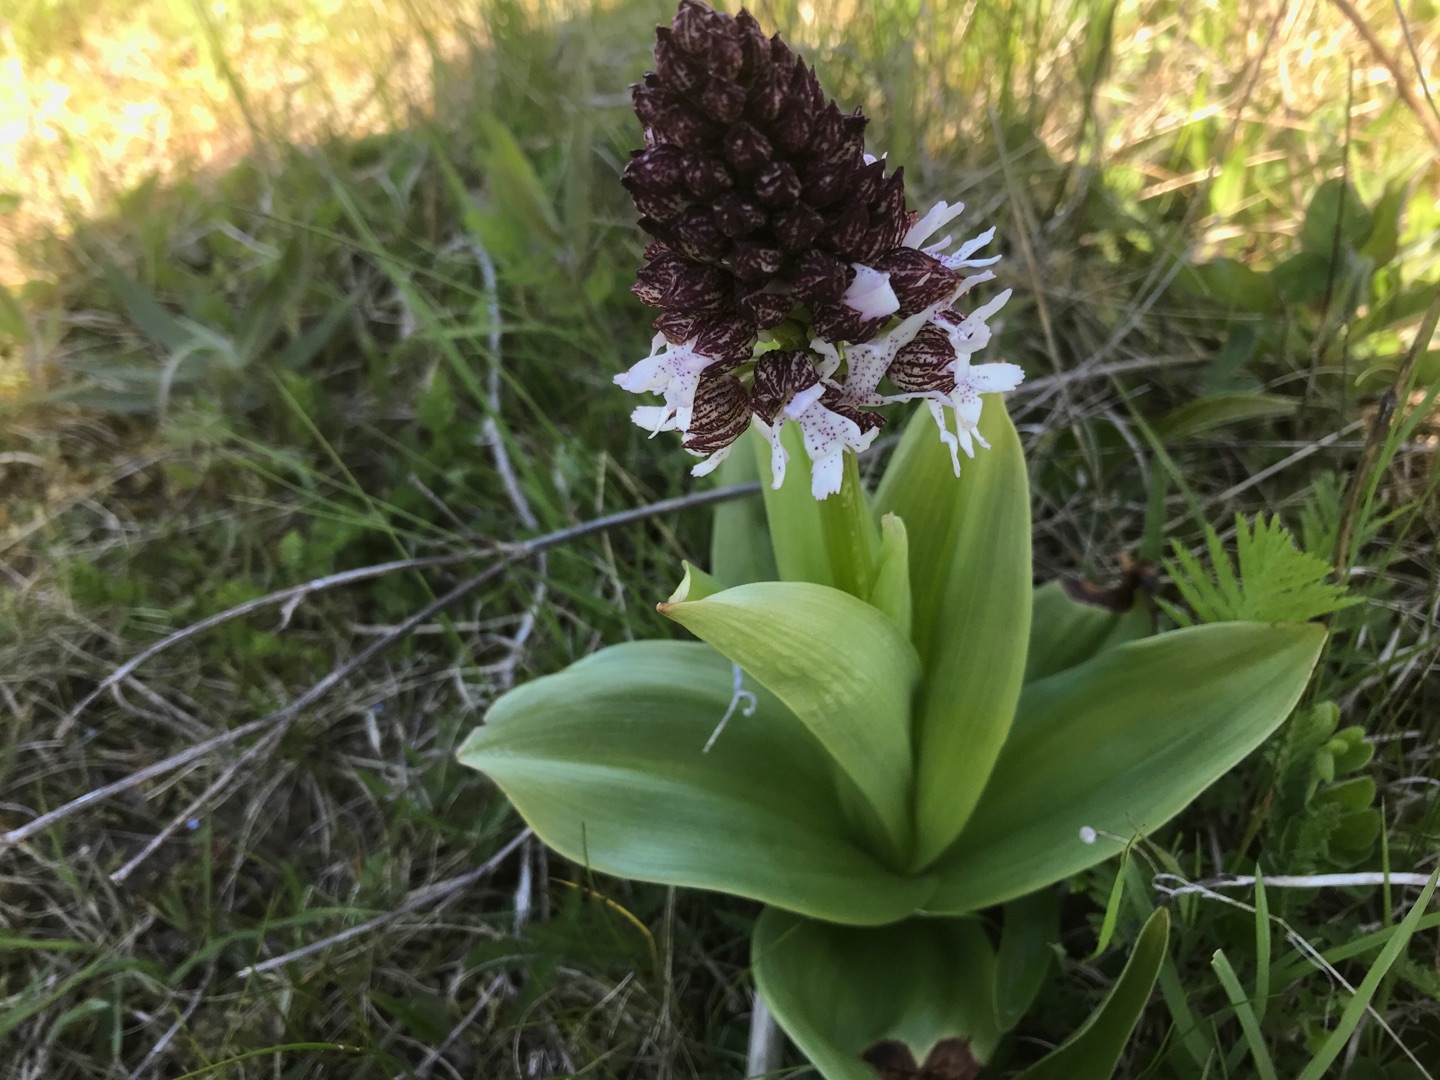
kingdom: Plantae
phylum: Tracheophyta
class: Liliopsida
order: Asparagales
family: Orchidaceae
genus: Orchis
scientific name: Orchis purpurea
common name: Stor gøgeurt
